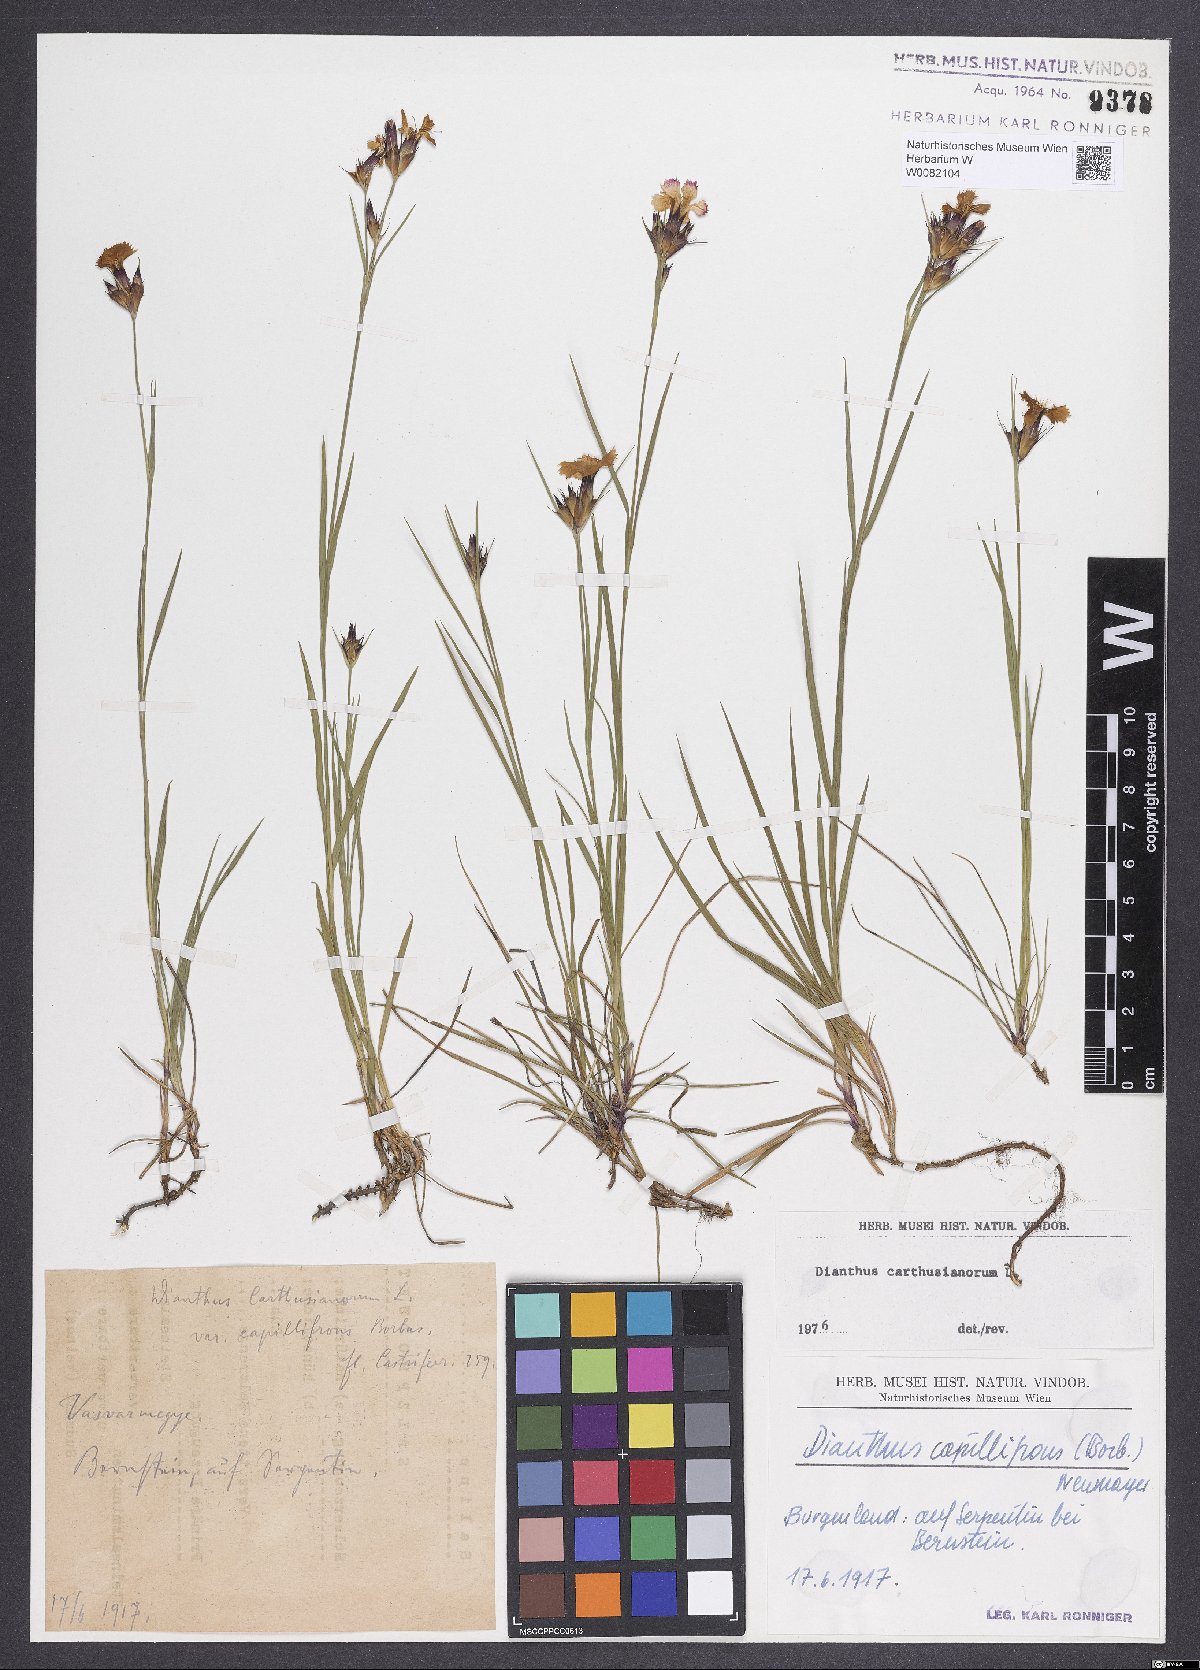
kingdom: Plantae
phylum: Tracheophyta
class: Magnoliopsida
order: Caryophyllales
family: Caryophyllaceae
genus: Dianthus
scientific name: Dianthus carthusianorum
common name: Carthusian pink
